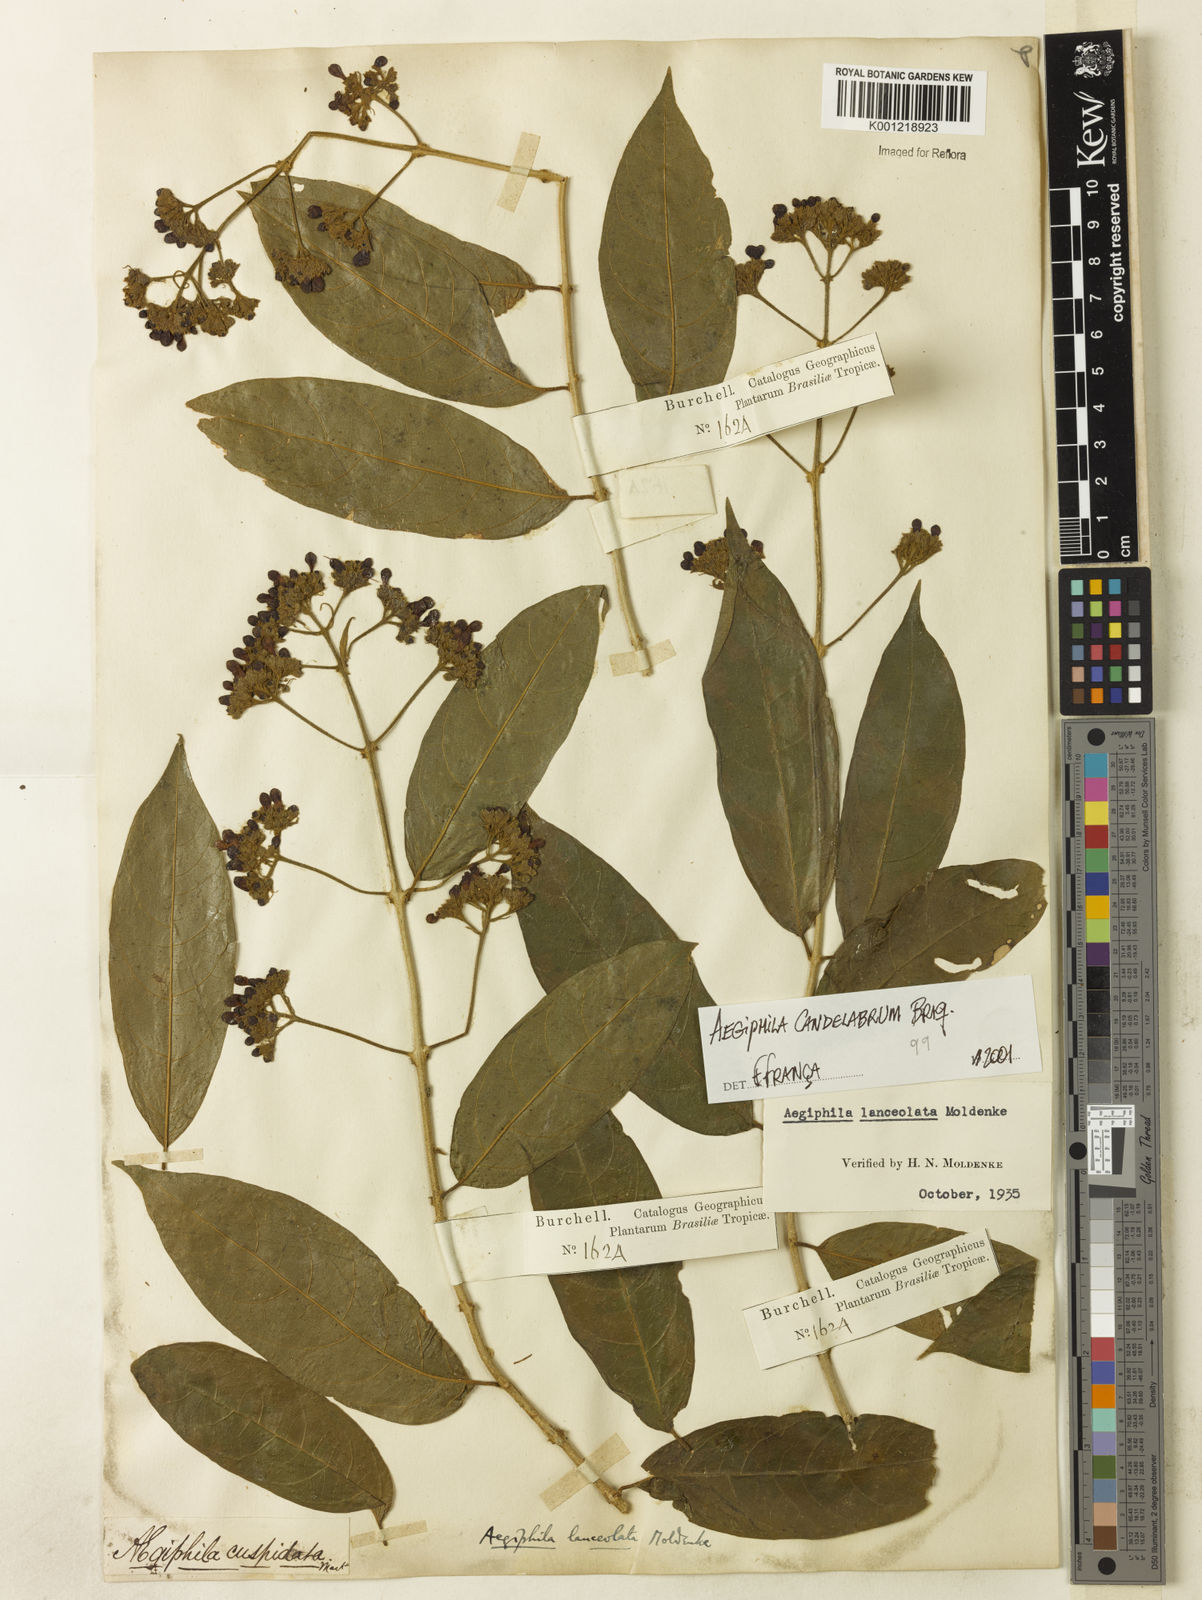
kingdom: Plantae
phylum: Tracheophyta
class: Magnoliopsida
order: Lamiales
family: Lamiaceae
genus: Aegiphila
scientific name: Aegiphila vitelliniflora
